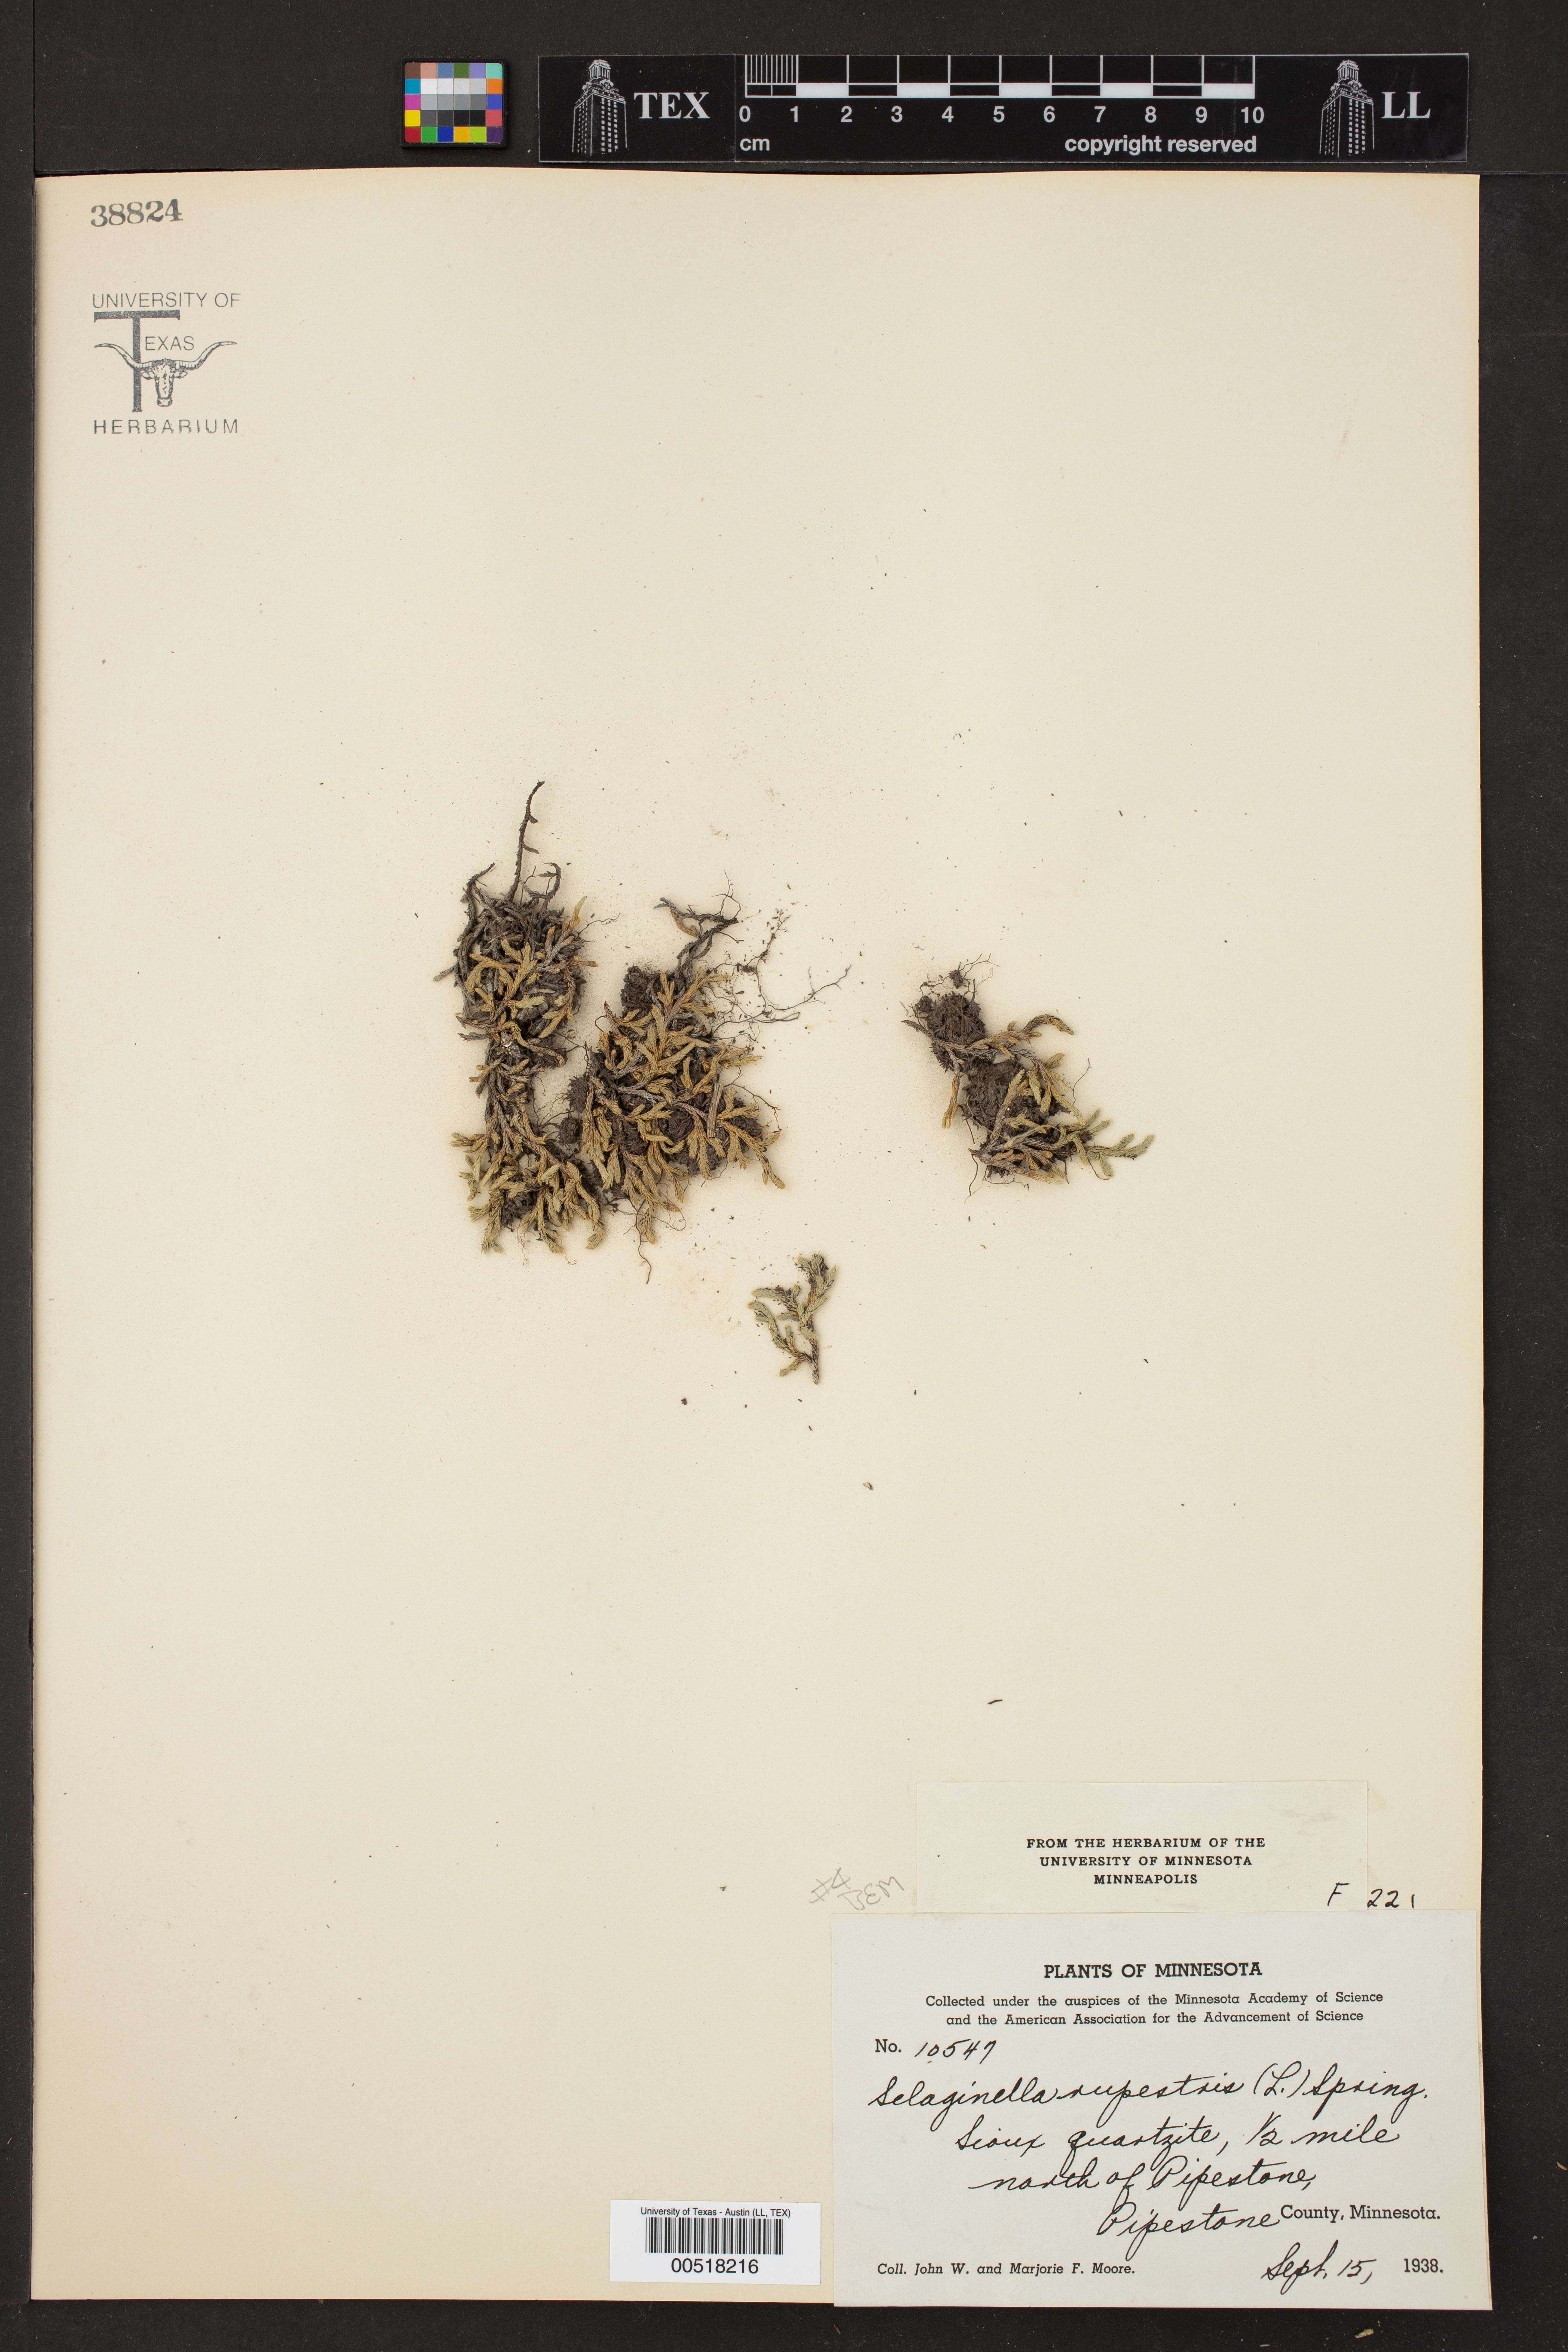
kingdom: Plantae
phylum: Tracheophyta
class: Lycopodiopsida
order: Selaginellales
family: Selaginellaceae
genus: Selaginella
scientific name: Selaginella rupestris
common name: Dwarf spikemoss
